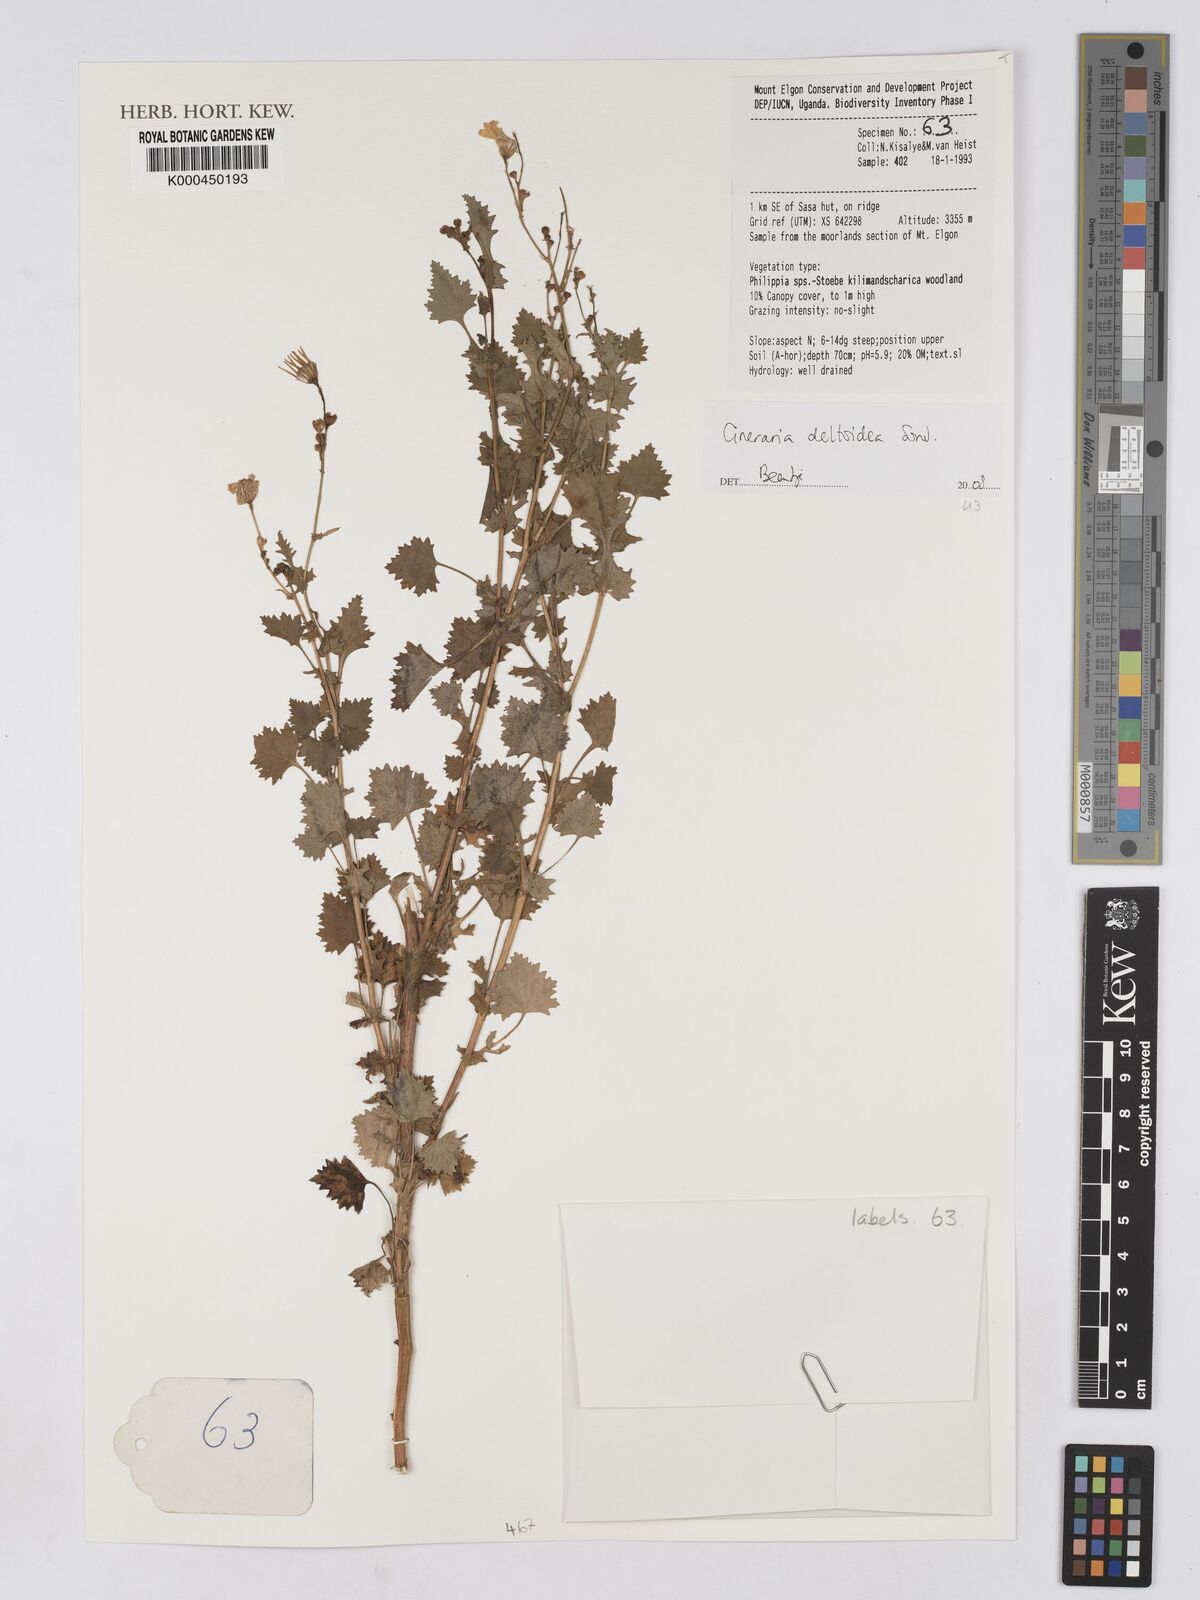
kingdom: Plantae
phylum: Tracheophyta
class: Magnoliopsida
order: Asterales
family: Asteraceae
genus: Cineraria
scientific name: Cineraria deltoidea
